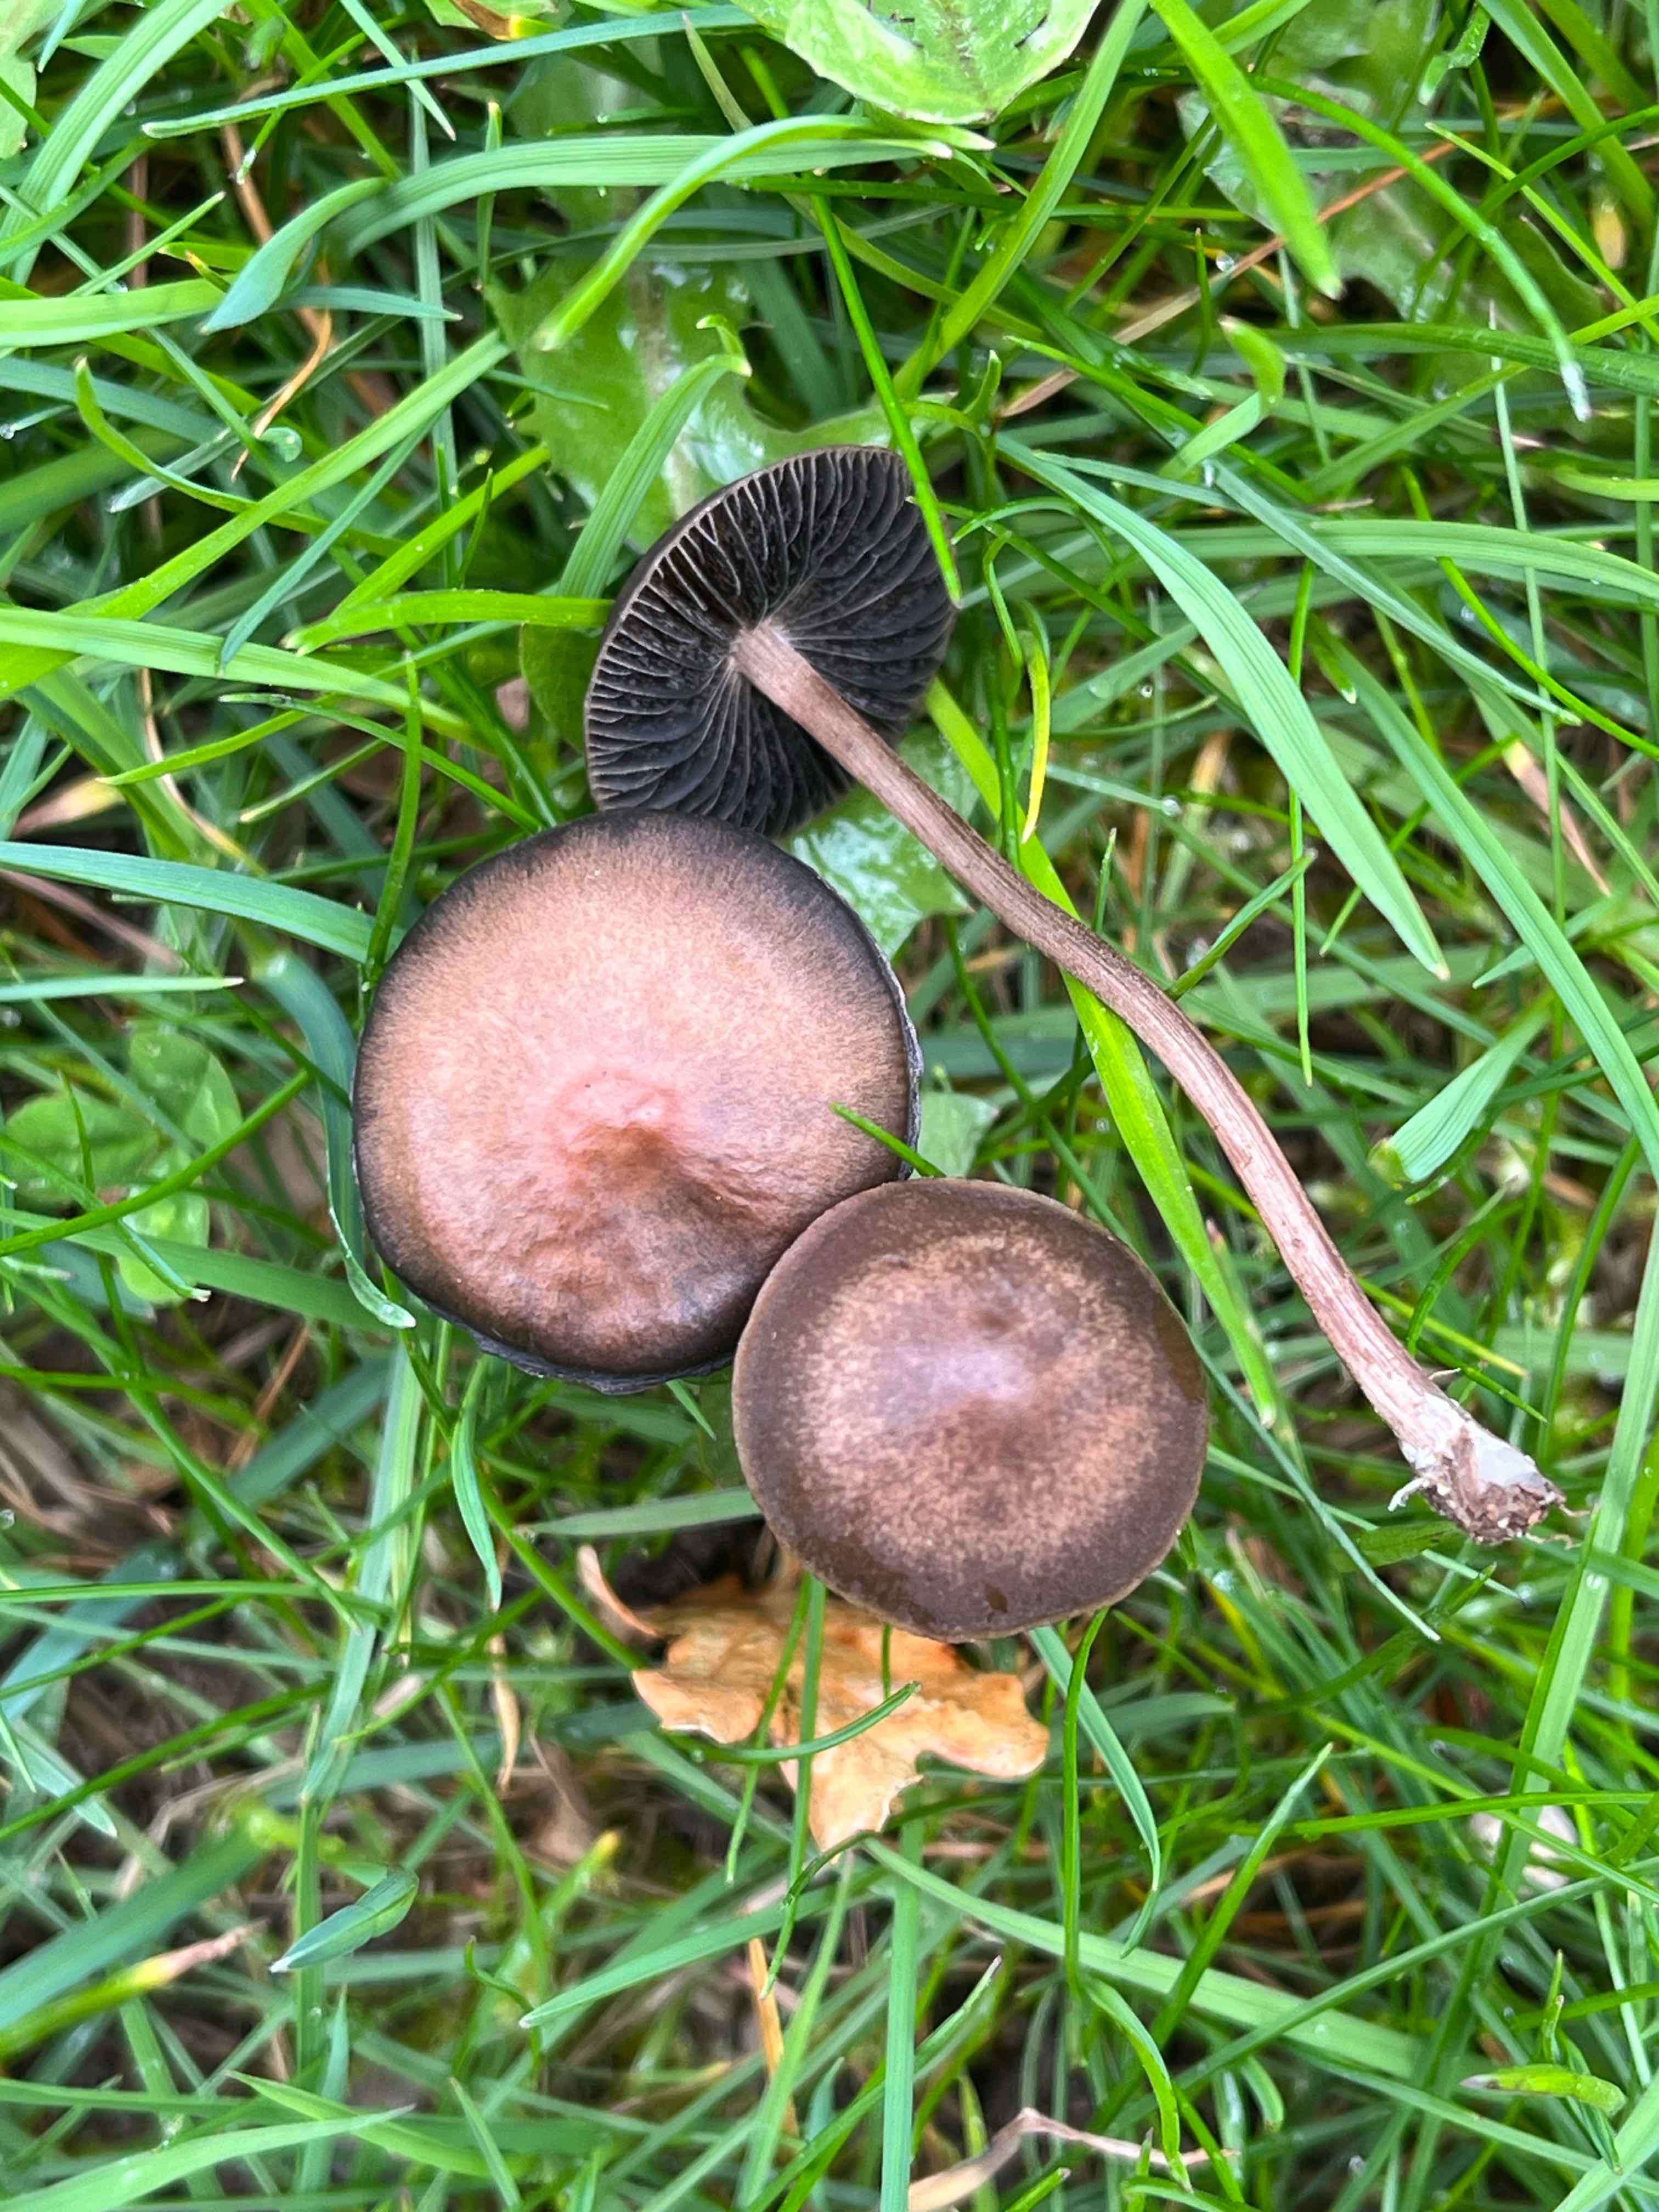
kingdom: Fungi
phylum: Basidiomycota
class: Agaricomycetes
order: Agaricales
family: Bolbitiaceae
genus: Panaeolus
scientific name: Panaeolus fimicola
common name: tidlig glanshat
